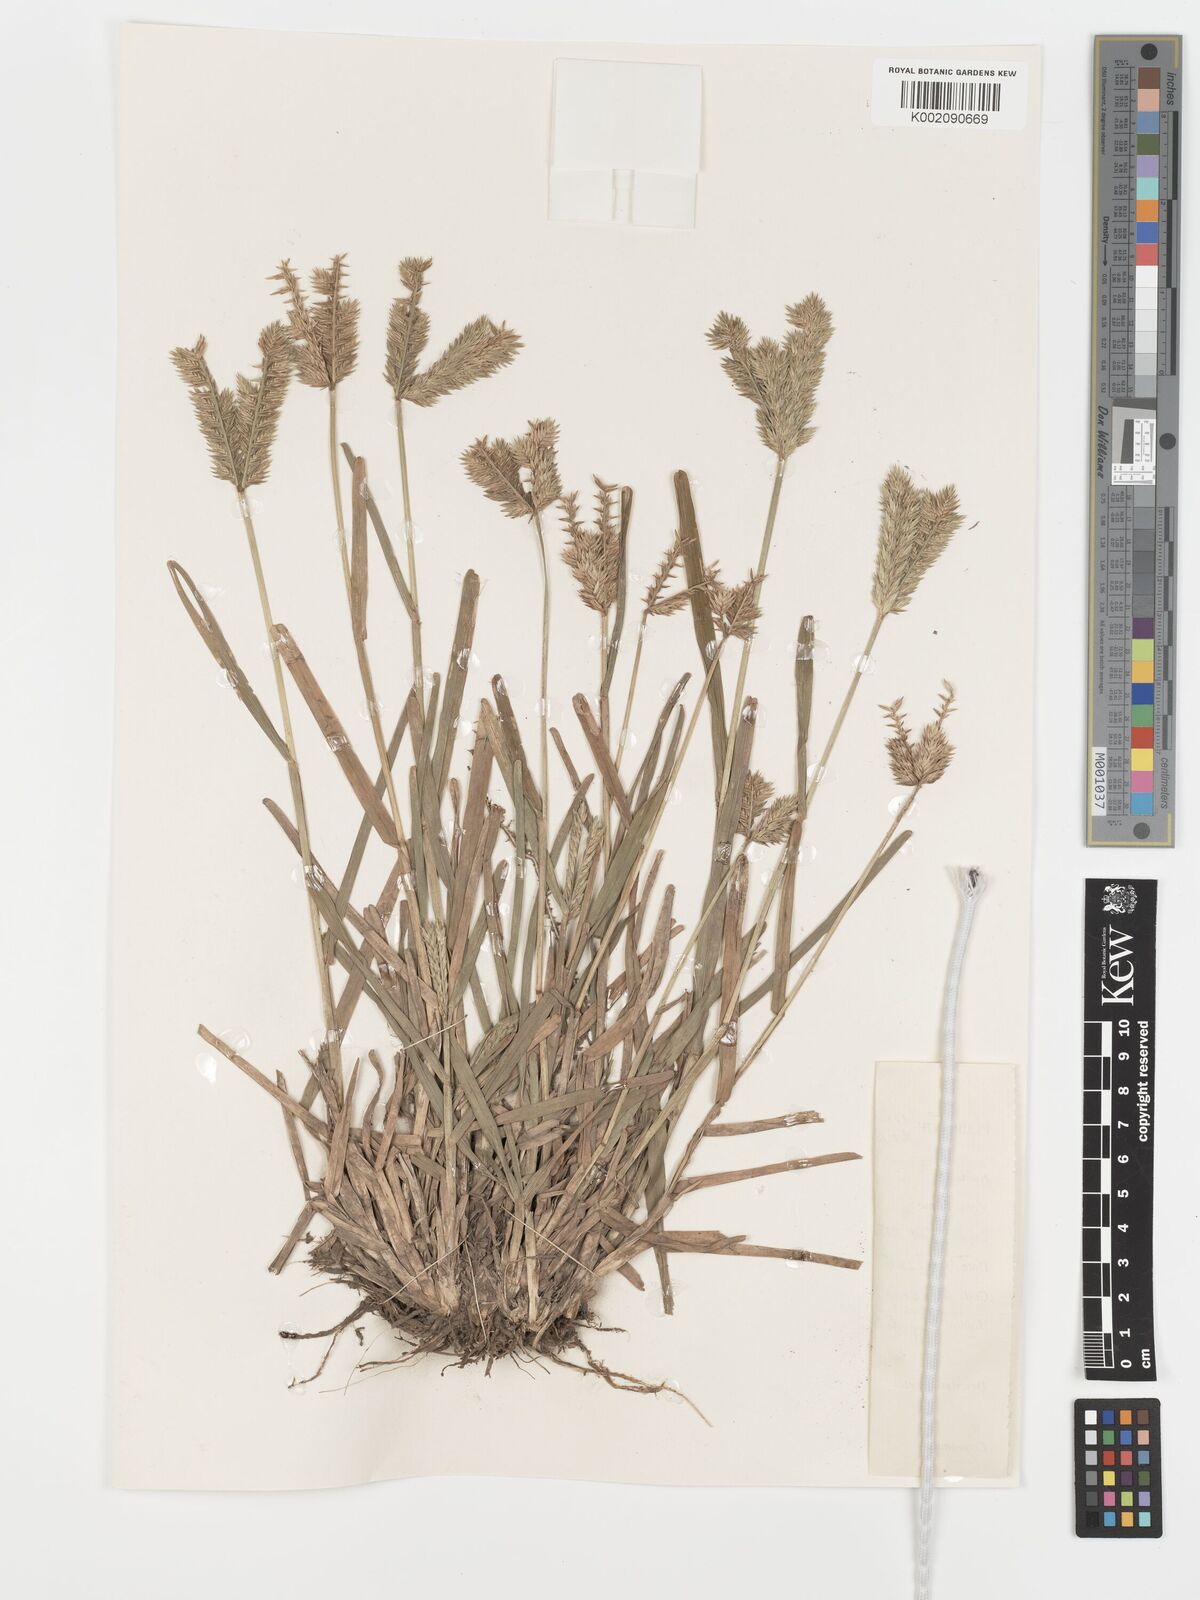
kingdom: Plantae
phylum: Tracheophyta
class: Liliopsida
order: Poales
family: Poaceae
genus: Eleusine
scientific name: Eleusine tristachya
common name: American yard-grass
